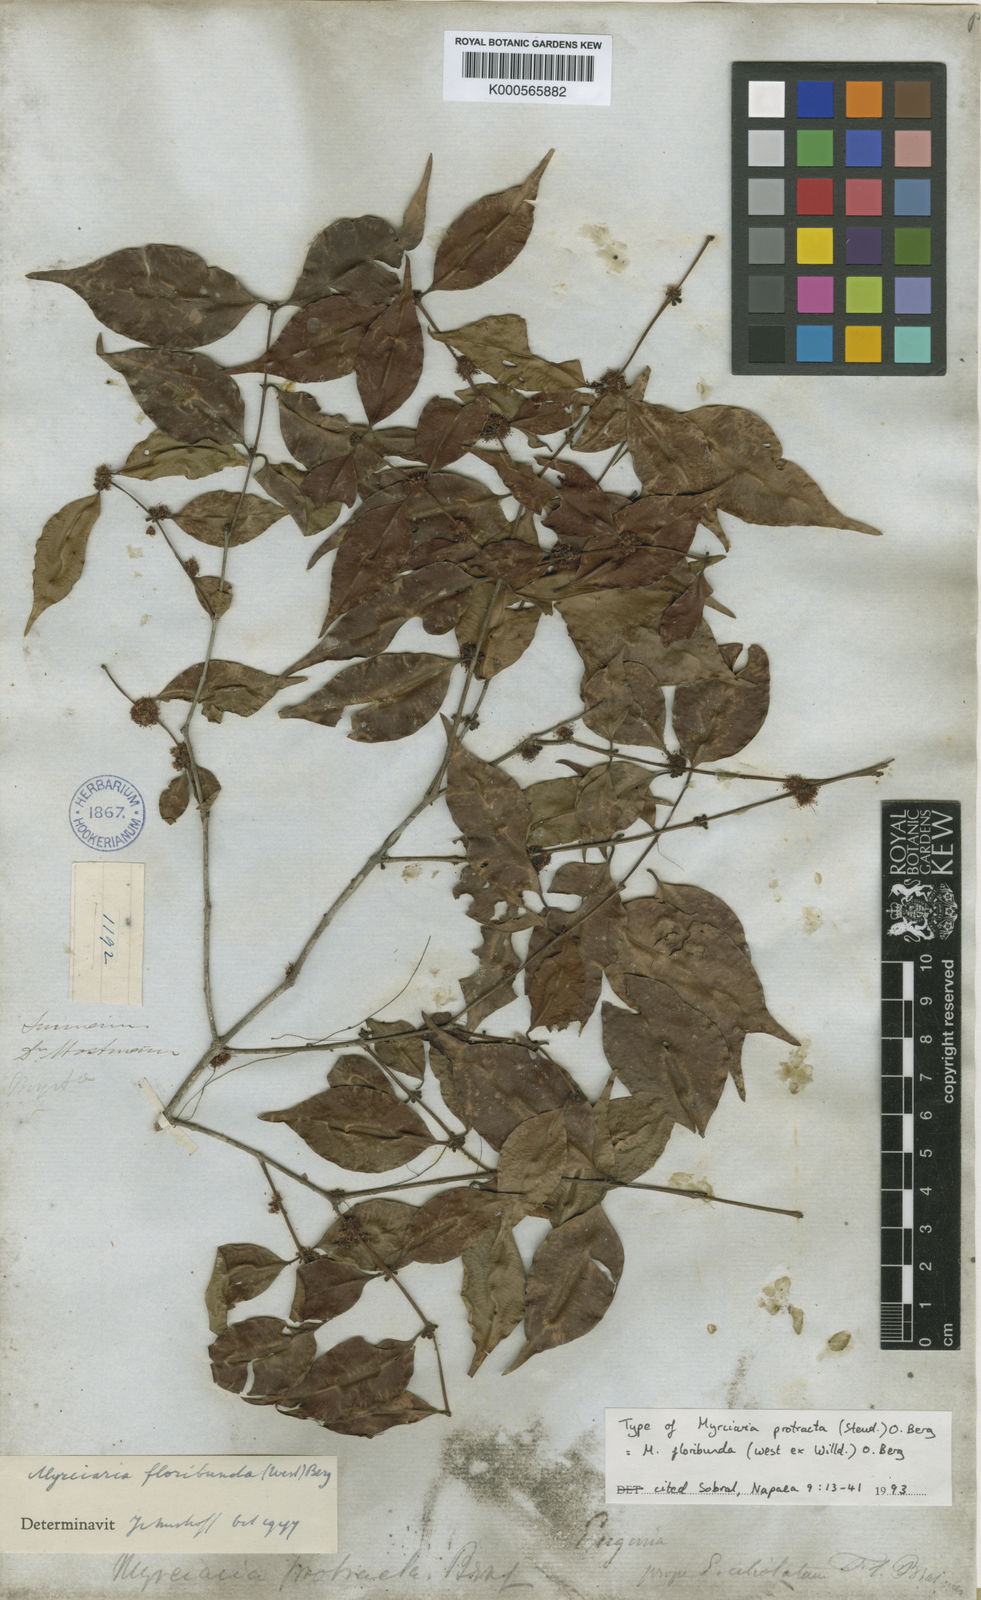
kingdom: Plantae
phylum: Tracheophyta
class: Magnoliopsida
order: Myrtales
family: Myrtaceae
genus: Myrciaria
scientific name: Myrciaria floribunda
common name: Guavaberry
